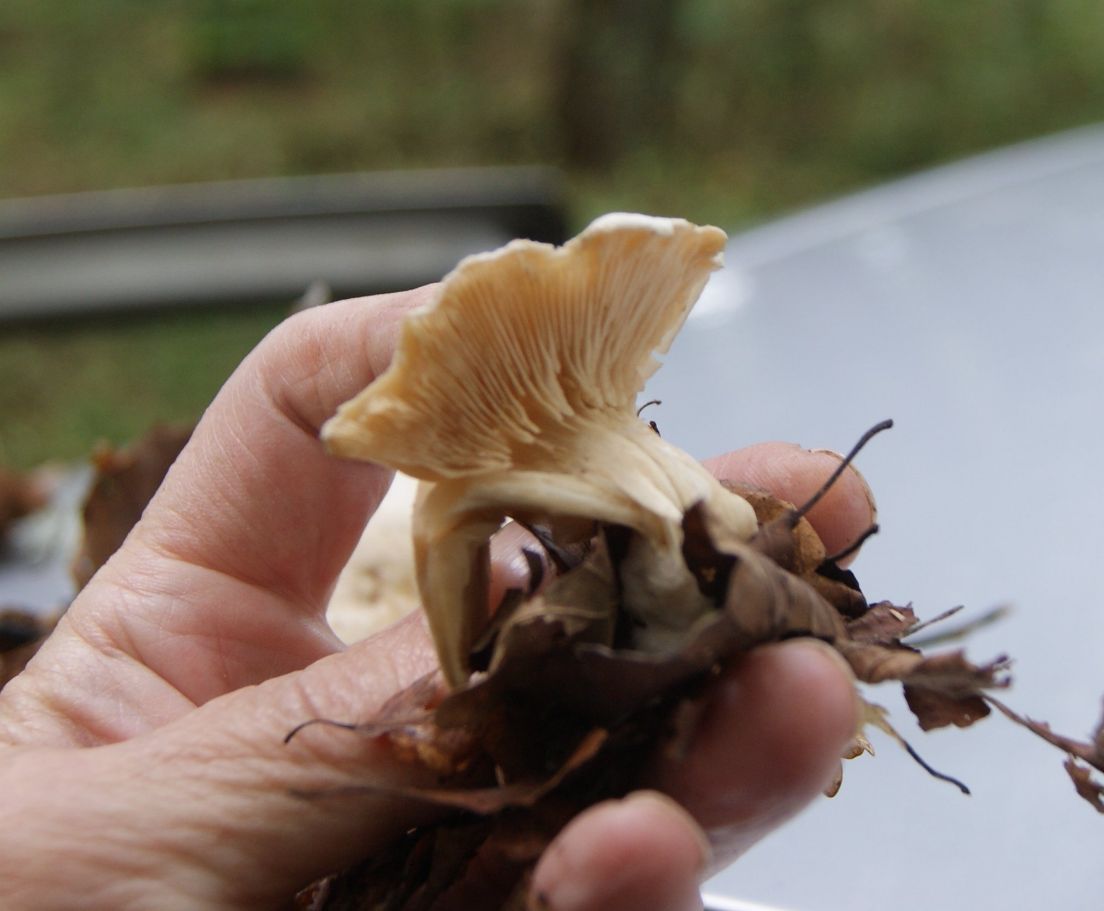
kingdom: Fungi
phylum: Basidiomycota
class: Agaricomycetes
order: Agaricales
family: Tricholomataceae
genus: Clitocybe
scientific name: Clitocybe phyllophila
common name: løv-tragthat
